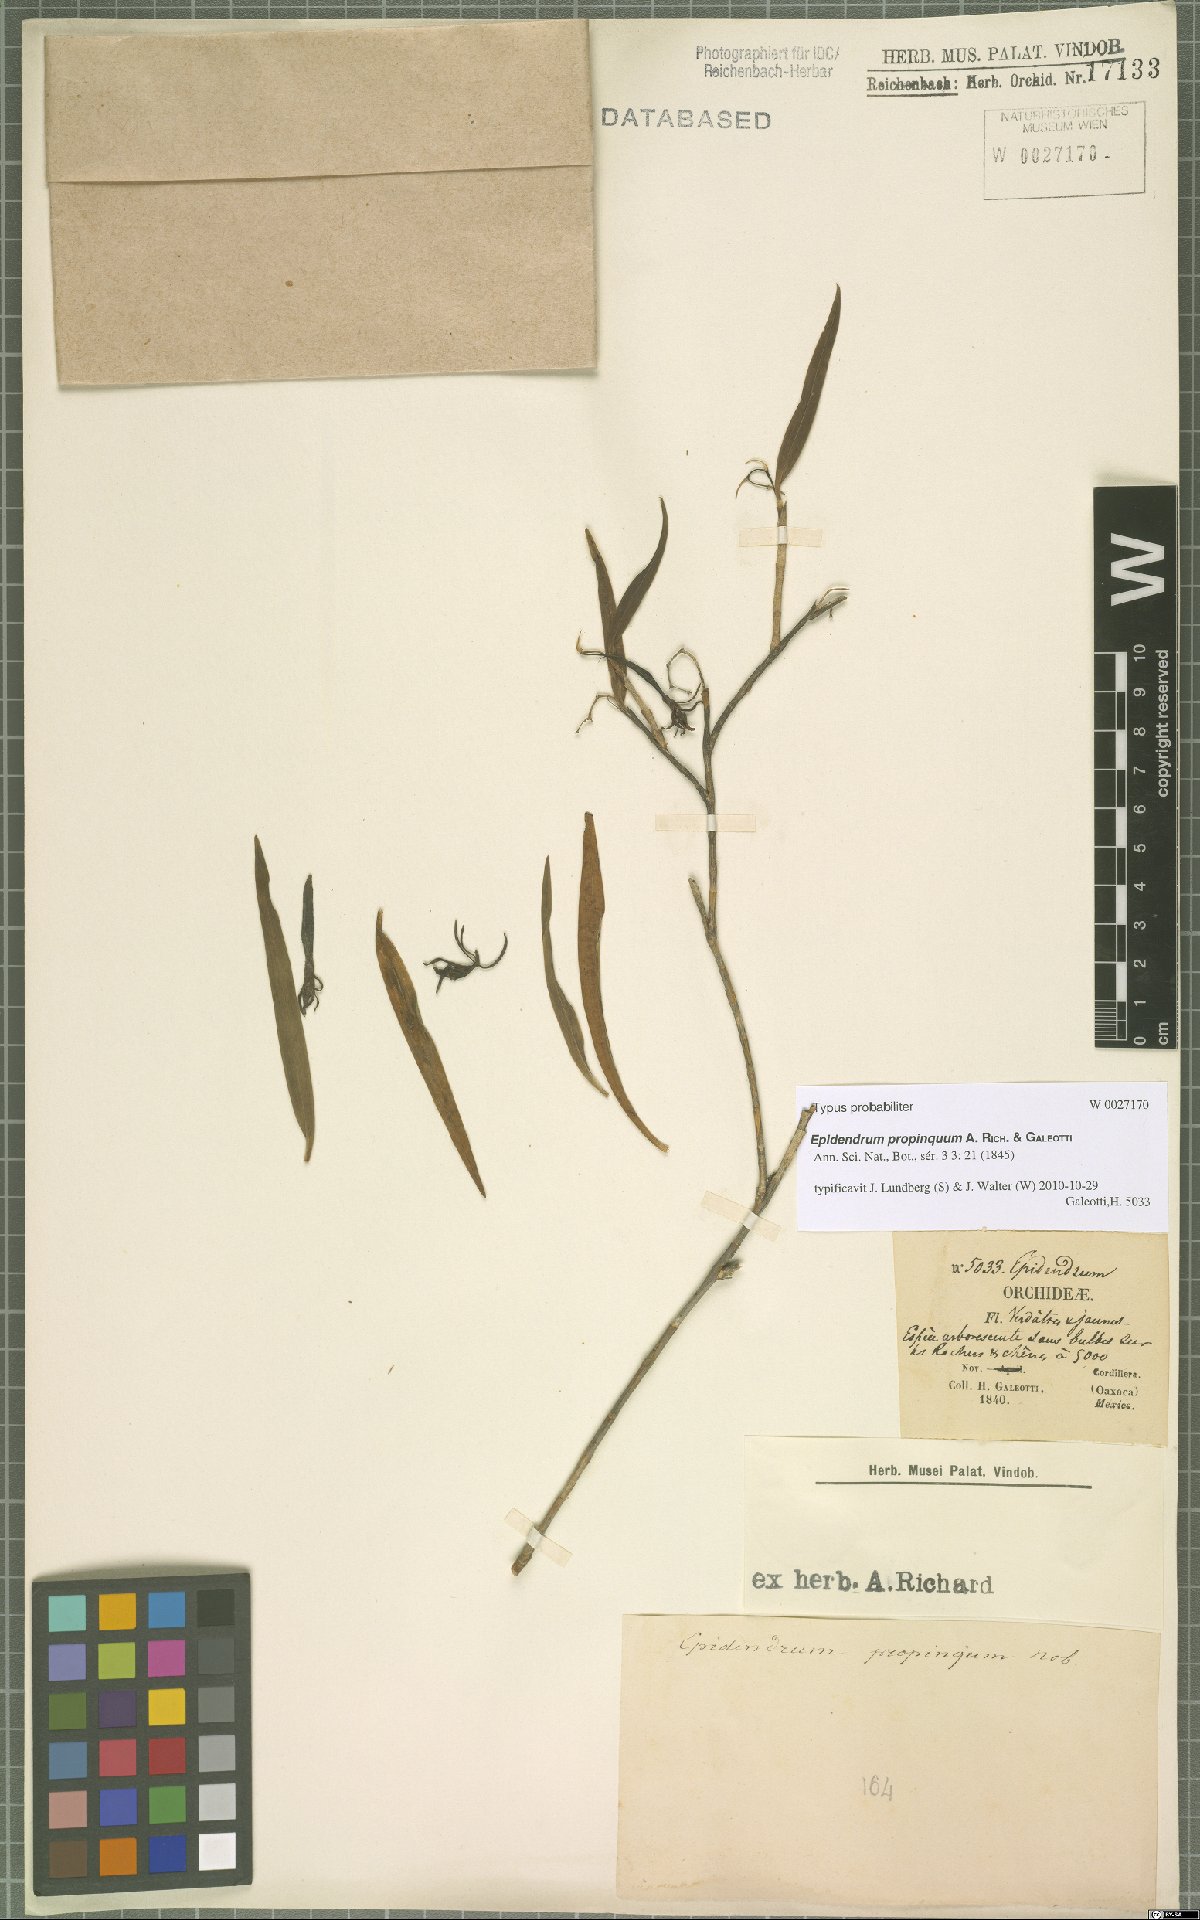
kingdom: Plantae
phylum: Tracheophyta
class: Liliopsida
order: Asparagales
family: Orchidaceae
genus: Epidendrum
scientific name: Epidendrum propinquum
